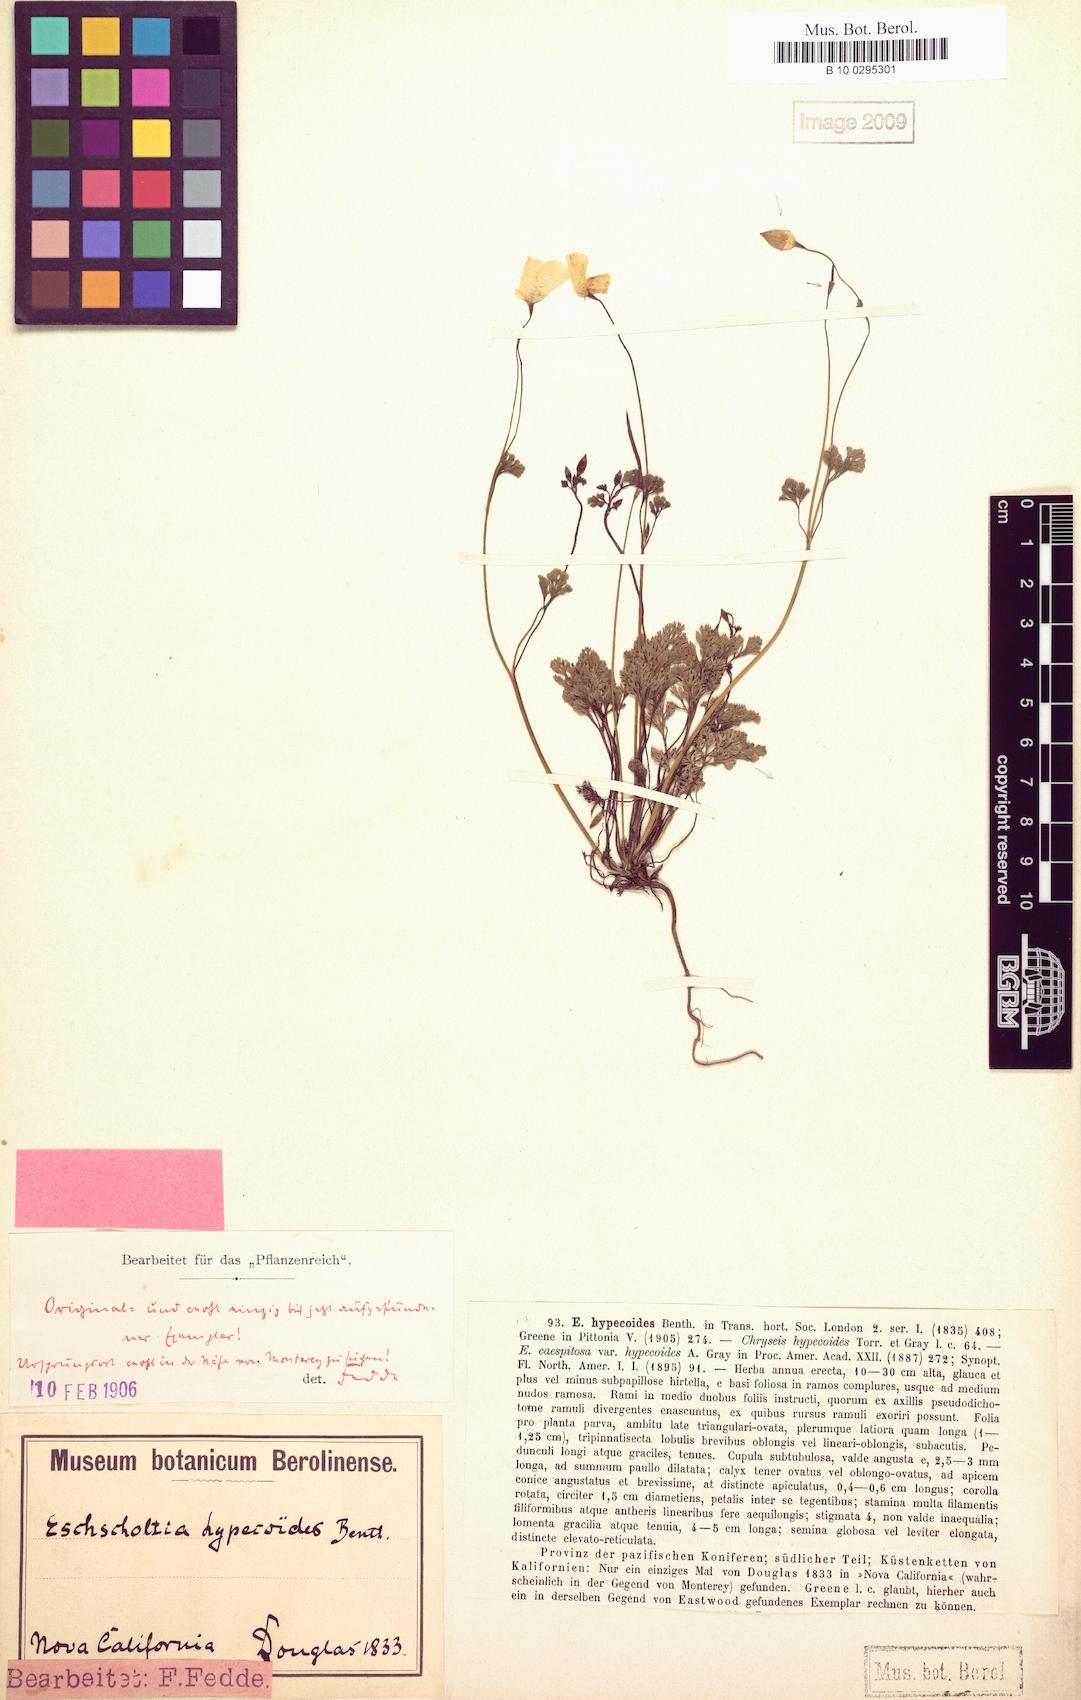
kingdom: Plantae
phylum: Tracheophyta
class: Magnoliopsida
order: Ranunculales
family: Papaveraceae
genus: Eschscholzia
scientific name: Eschscholzia hypecoides
